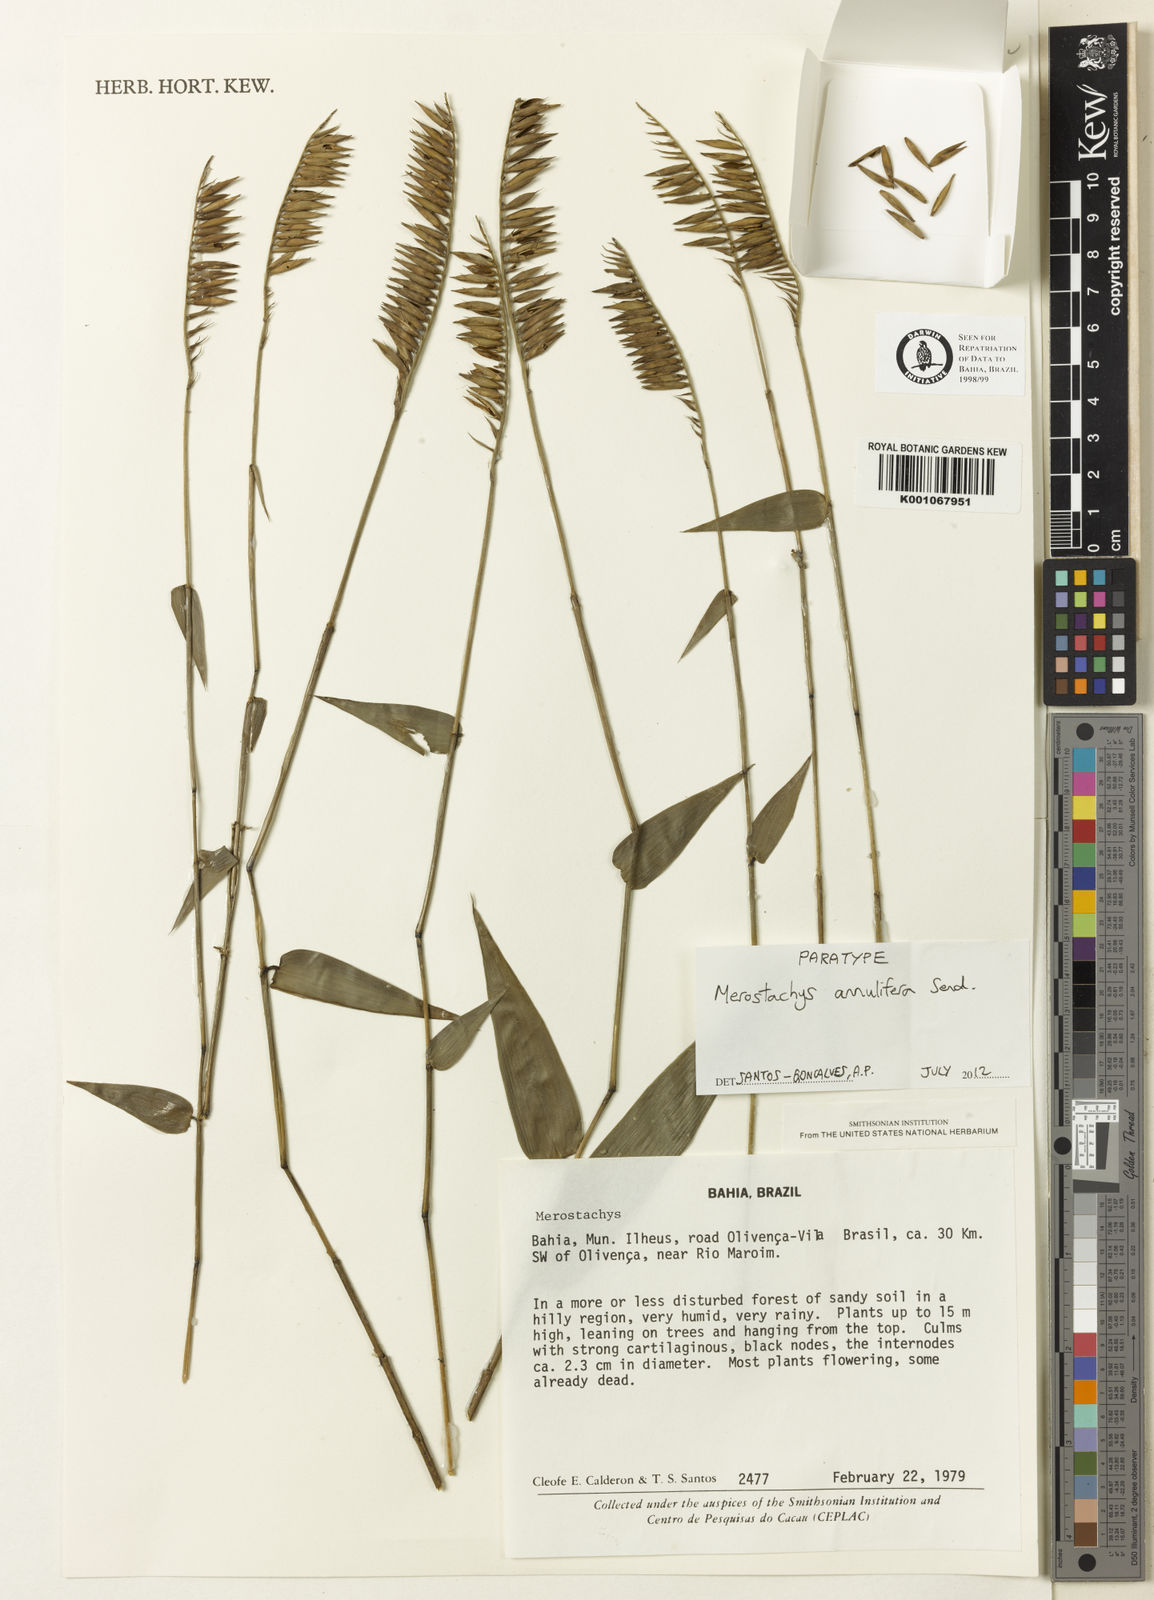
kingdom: Plantae
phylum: Tracheophyta
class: Liliopsida
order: Poales
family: Poaceae
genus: Merostachys
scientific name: Merostachys annulifera
